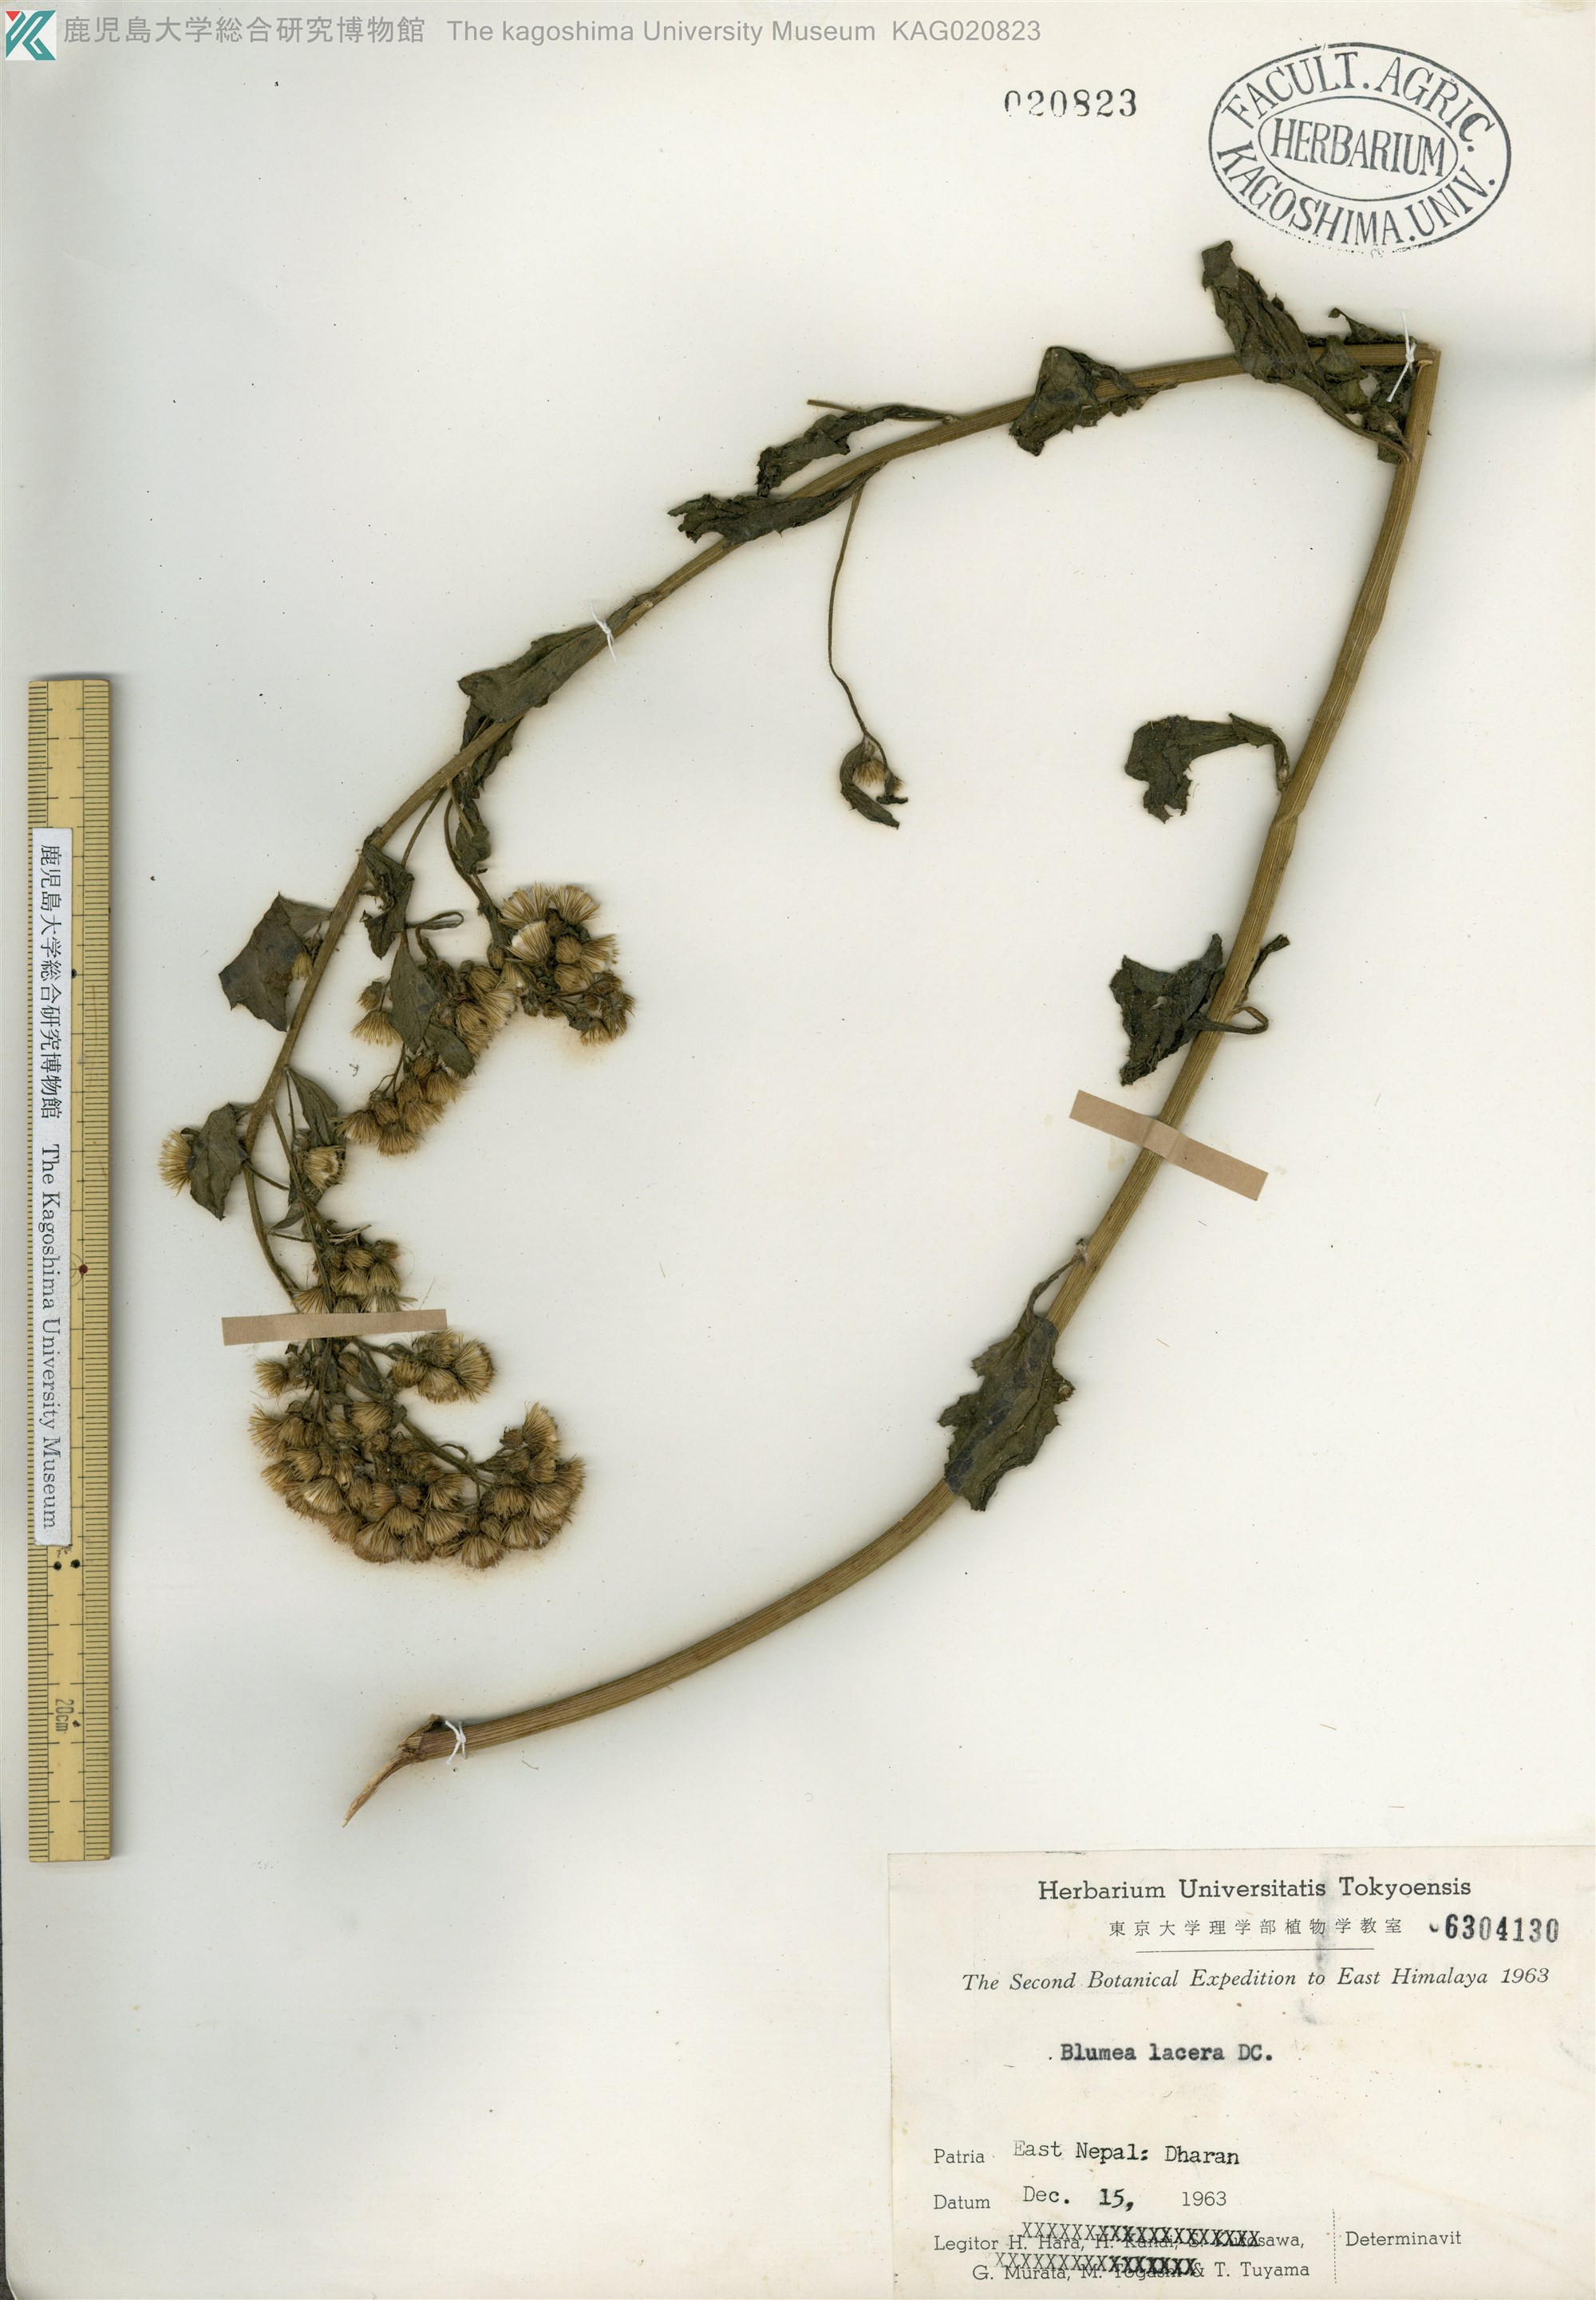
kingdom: Plantae
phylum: Tracheophyta
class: Magnoliopsida
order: Asterales
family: Asteraceae
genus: Blumea
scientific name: Blumea lacera
